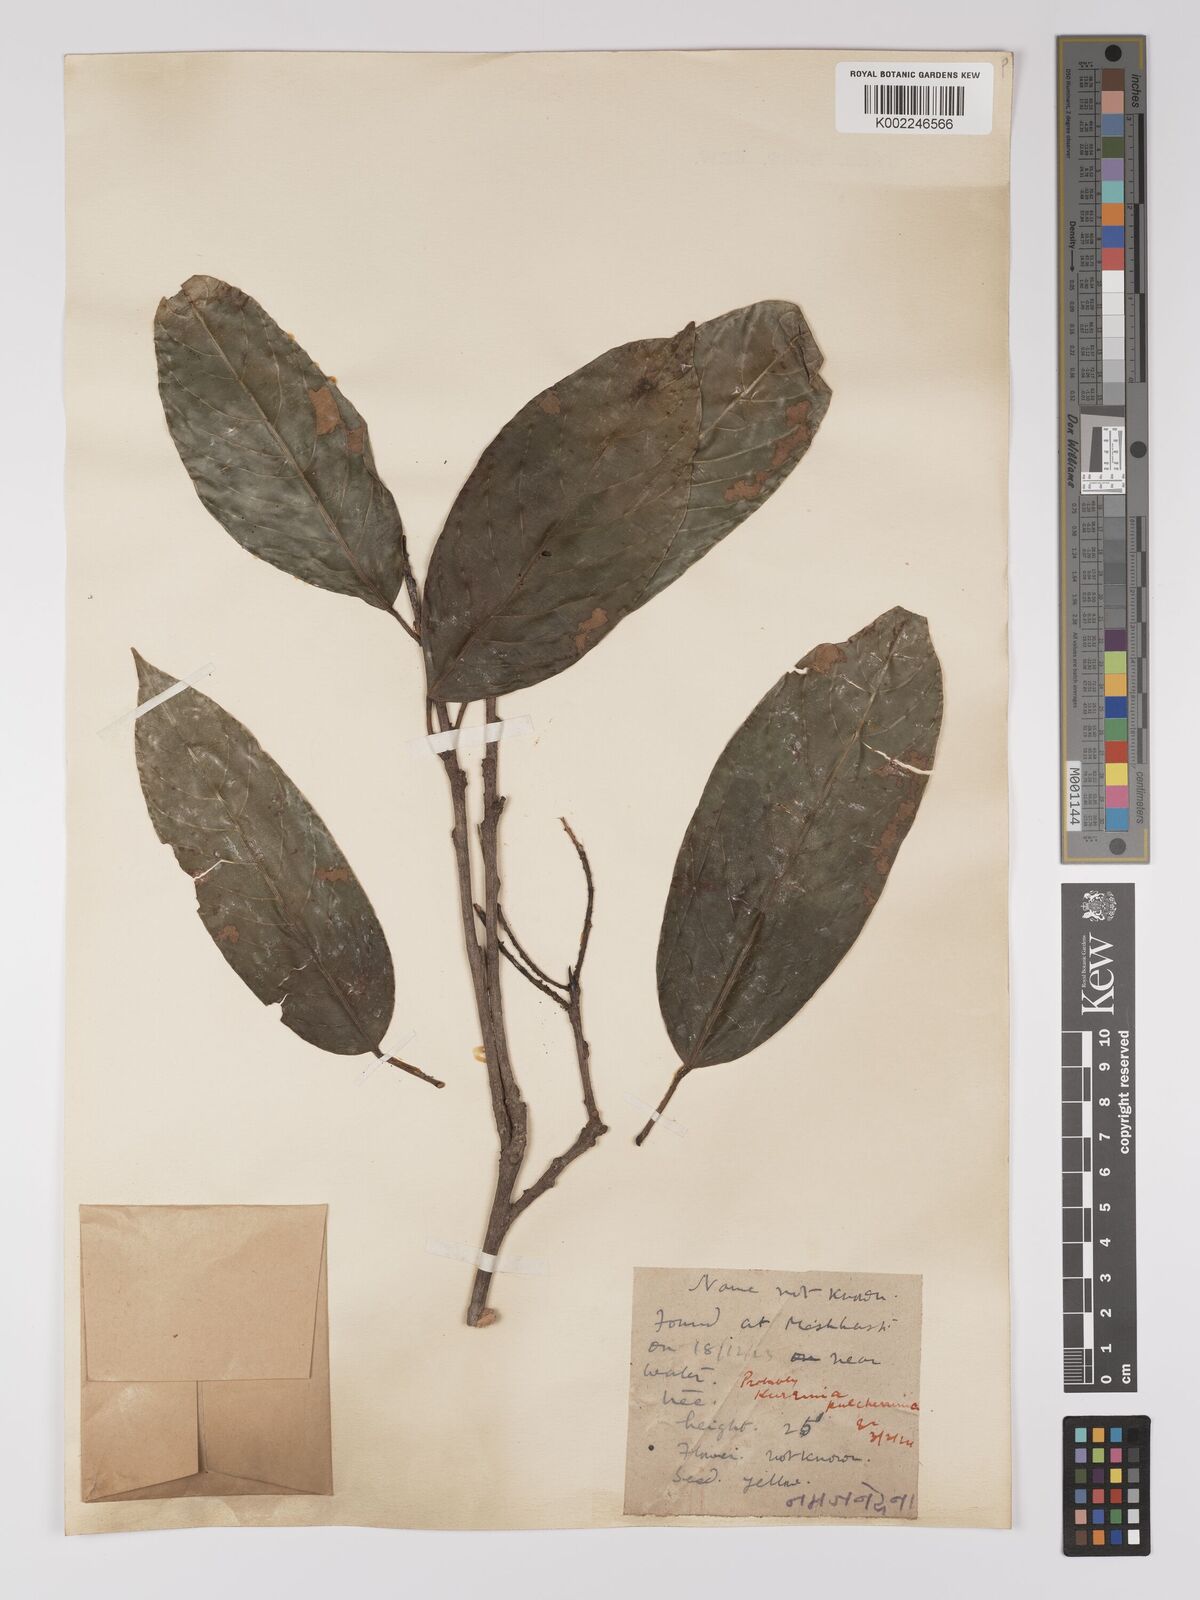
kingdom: Plantae
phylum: Tracheophyta
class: Magnoliopsida
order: Malpighiales
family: Centroplacaceae
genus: Bhesa
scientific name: Bhesa robusta
